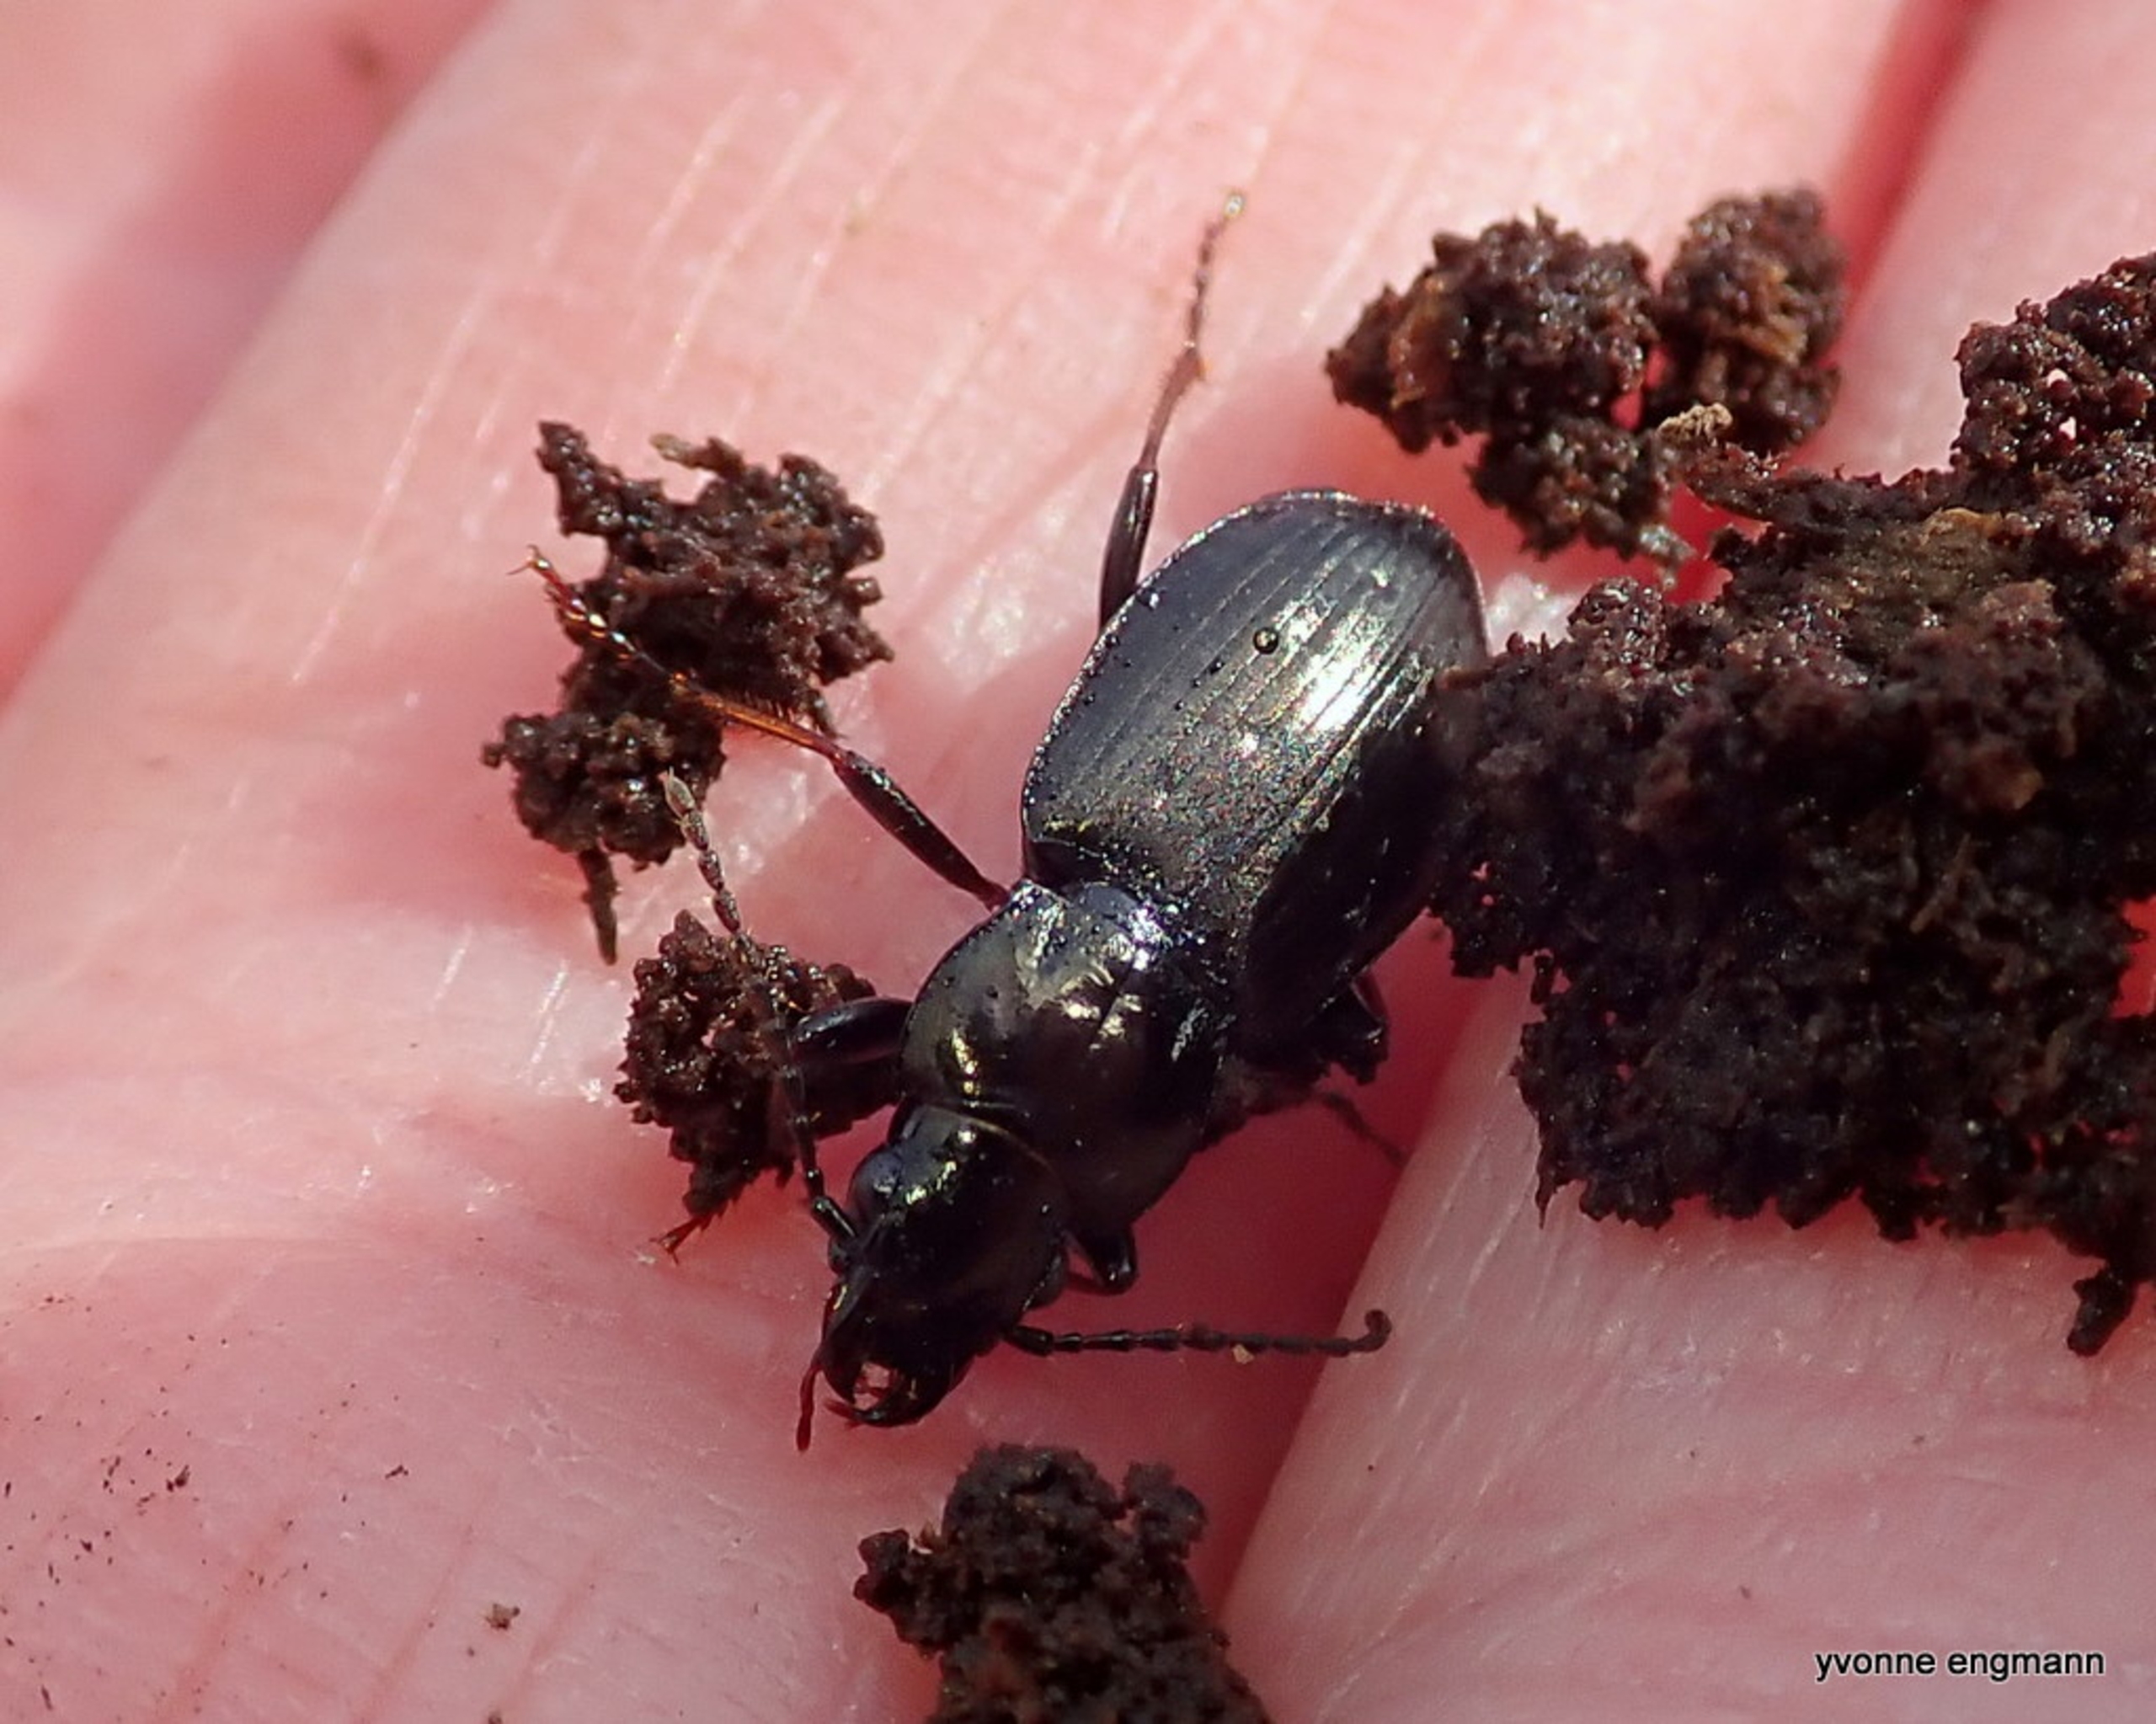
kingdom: Animalia
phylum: Arthropoda
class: Insecta
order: Coleoptera
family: Carabidae
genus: Pterostichus
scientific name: Pterostichus oblongopunctatus
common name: Bronzejordløber
